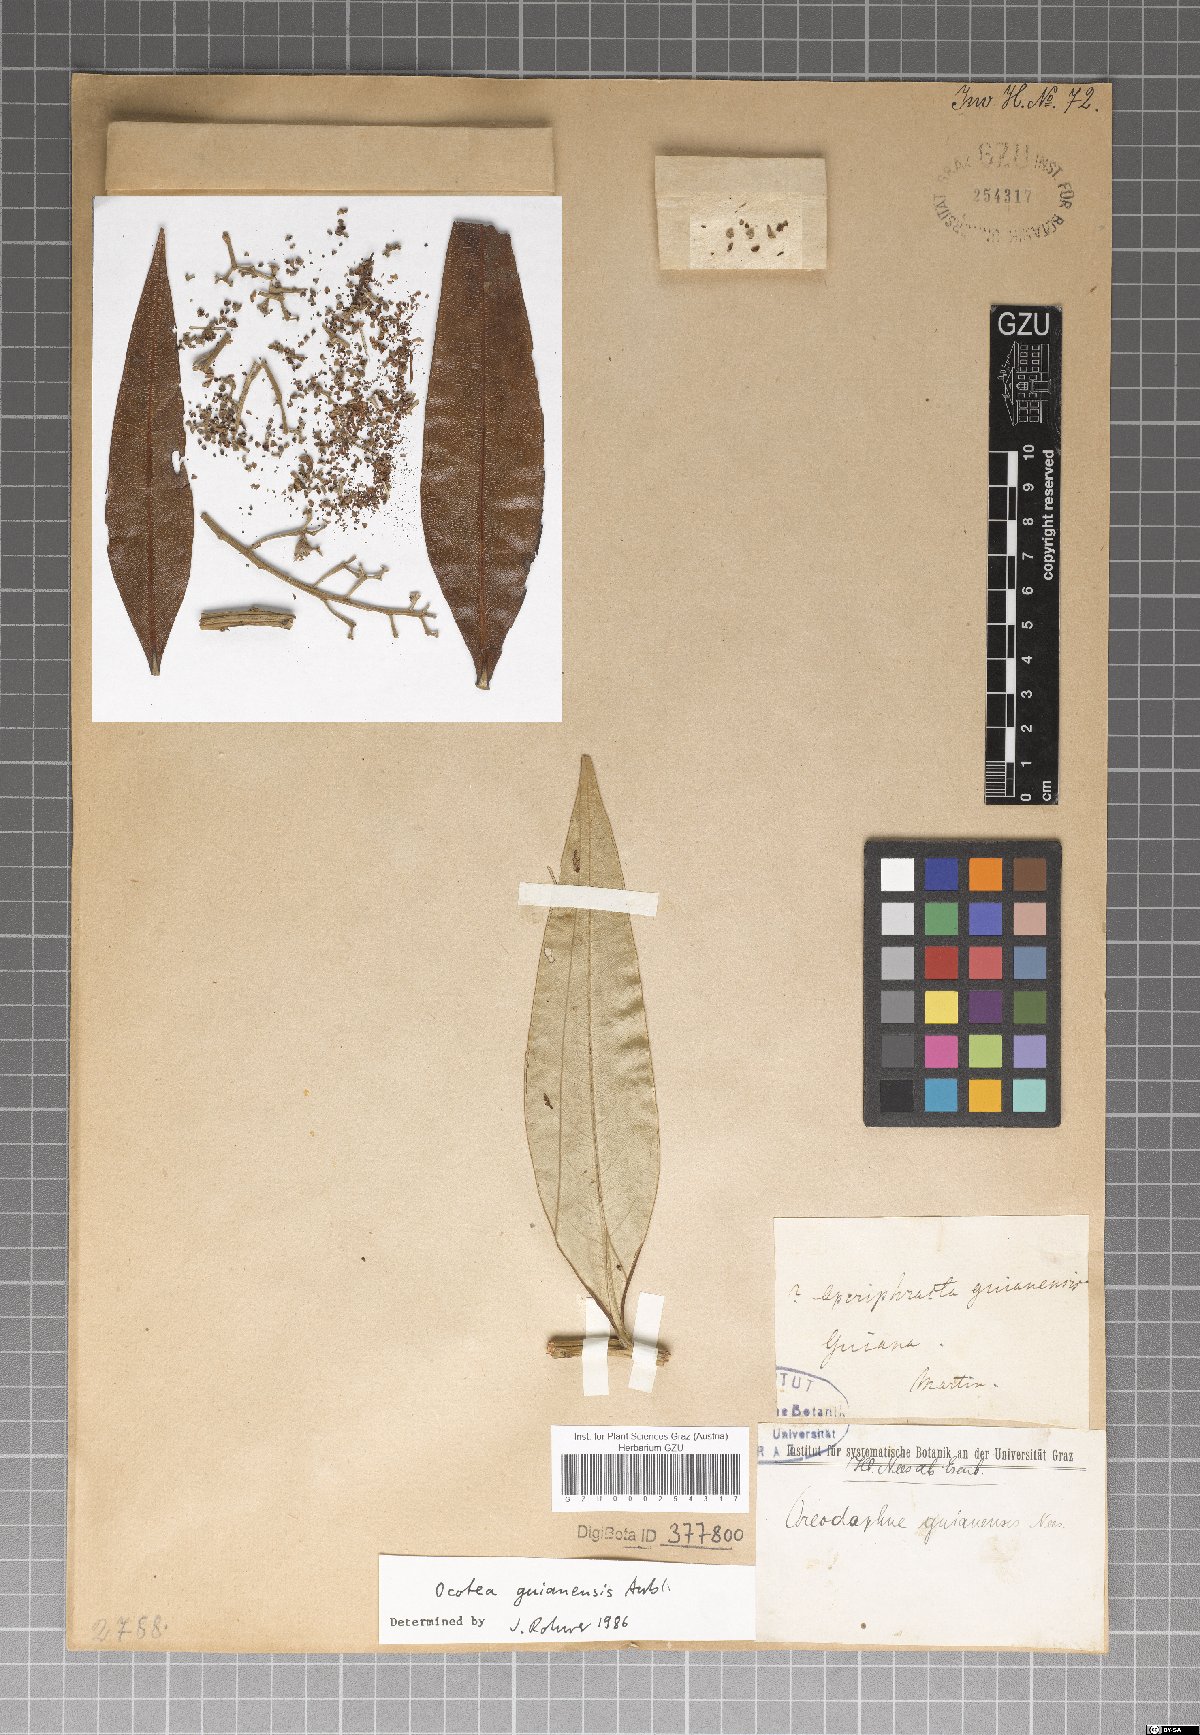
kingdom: Plantae
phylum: Tracheophyta
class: Magnoliopsida
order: Laurales
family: Lauraceae
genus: Ocotea
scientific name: Ocotea guianensis
